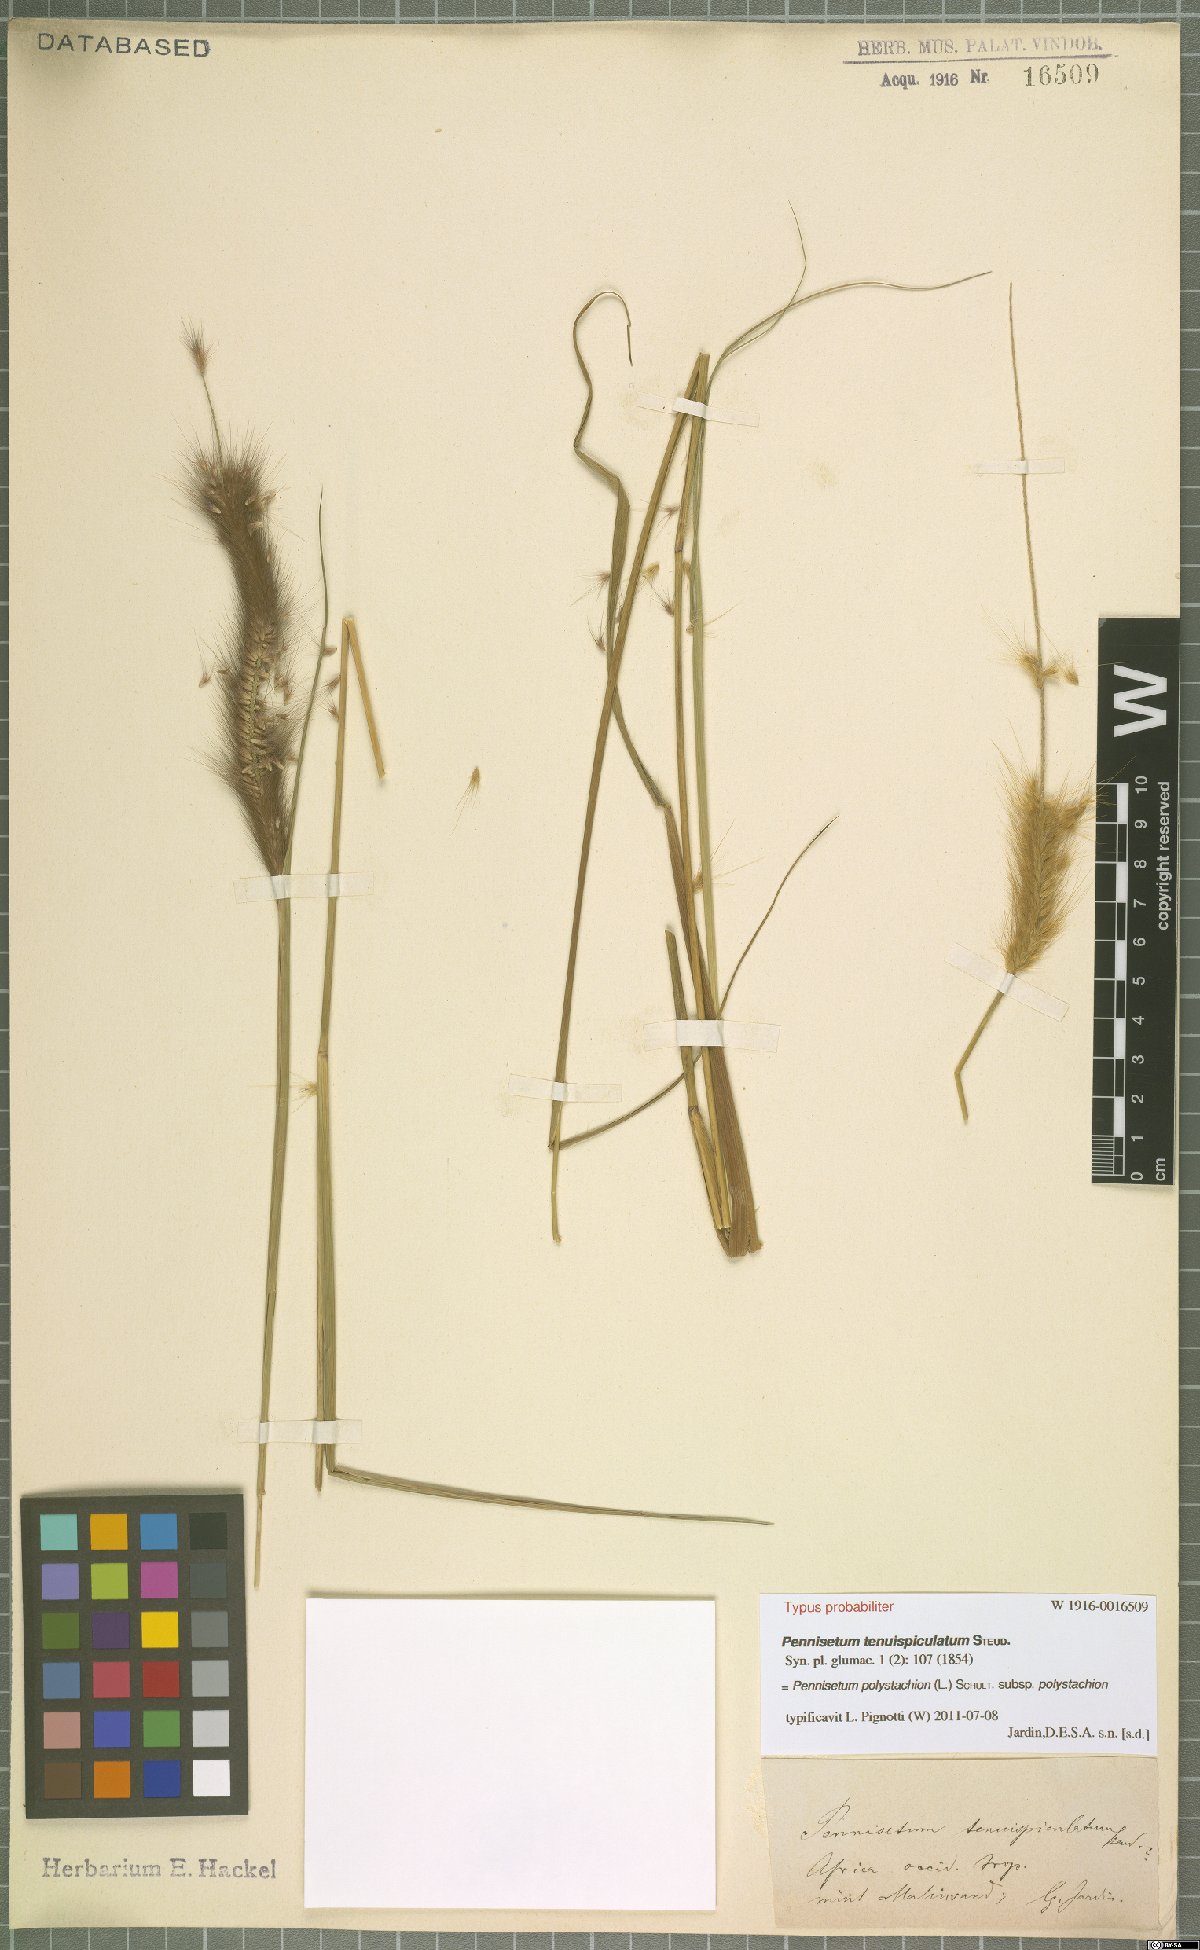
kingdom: Plantae
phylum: Tracheophyta
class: Liliopsida
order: Poales
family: Poaceae
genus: Setaria
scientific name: Setaria parviflora
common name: Knotroot bristle-grass
